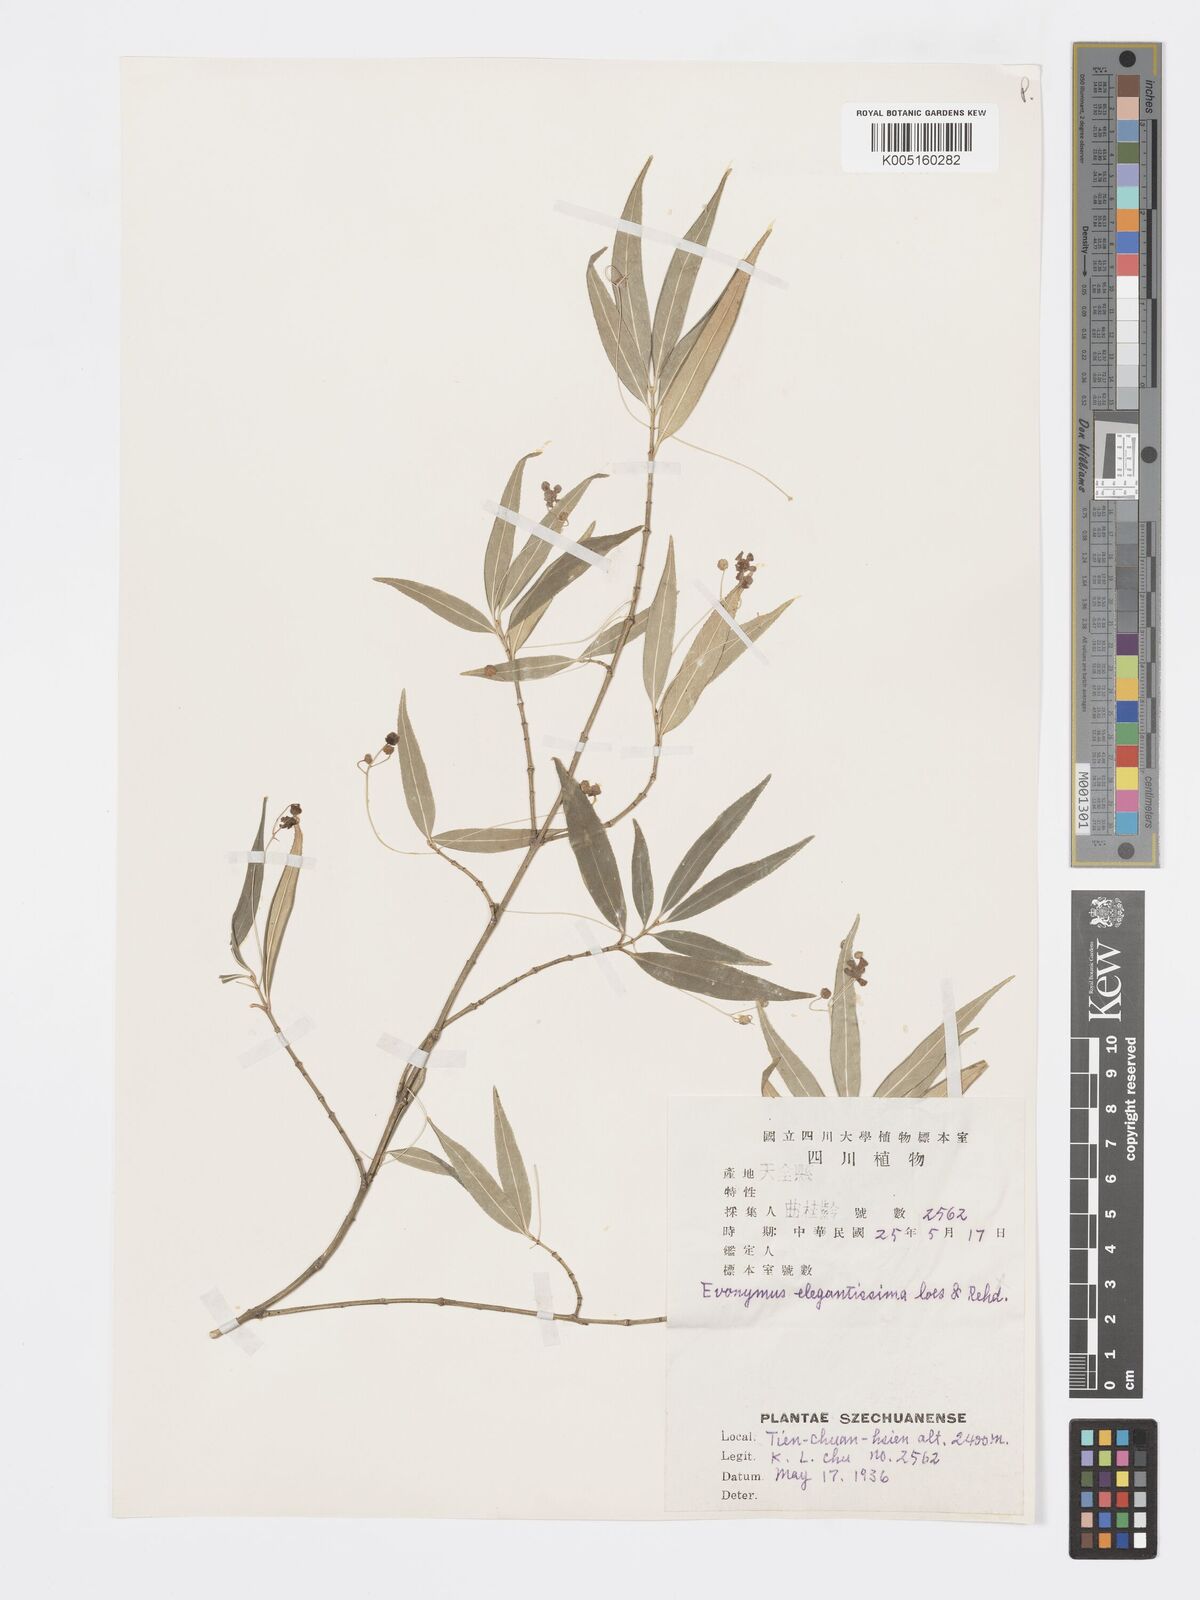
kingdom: Plantae
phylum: Tracheophyta
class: Magnoliopsida
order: Celastrales
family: Celastraceae
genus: Euonymus
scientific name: Euonymus cornutus
